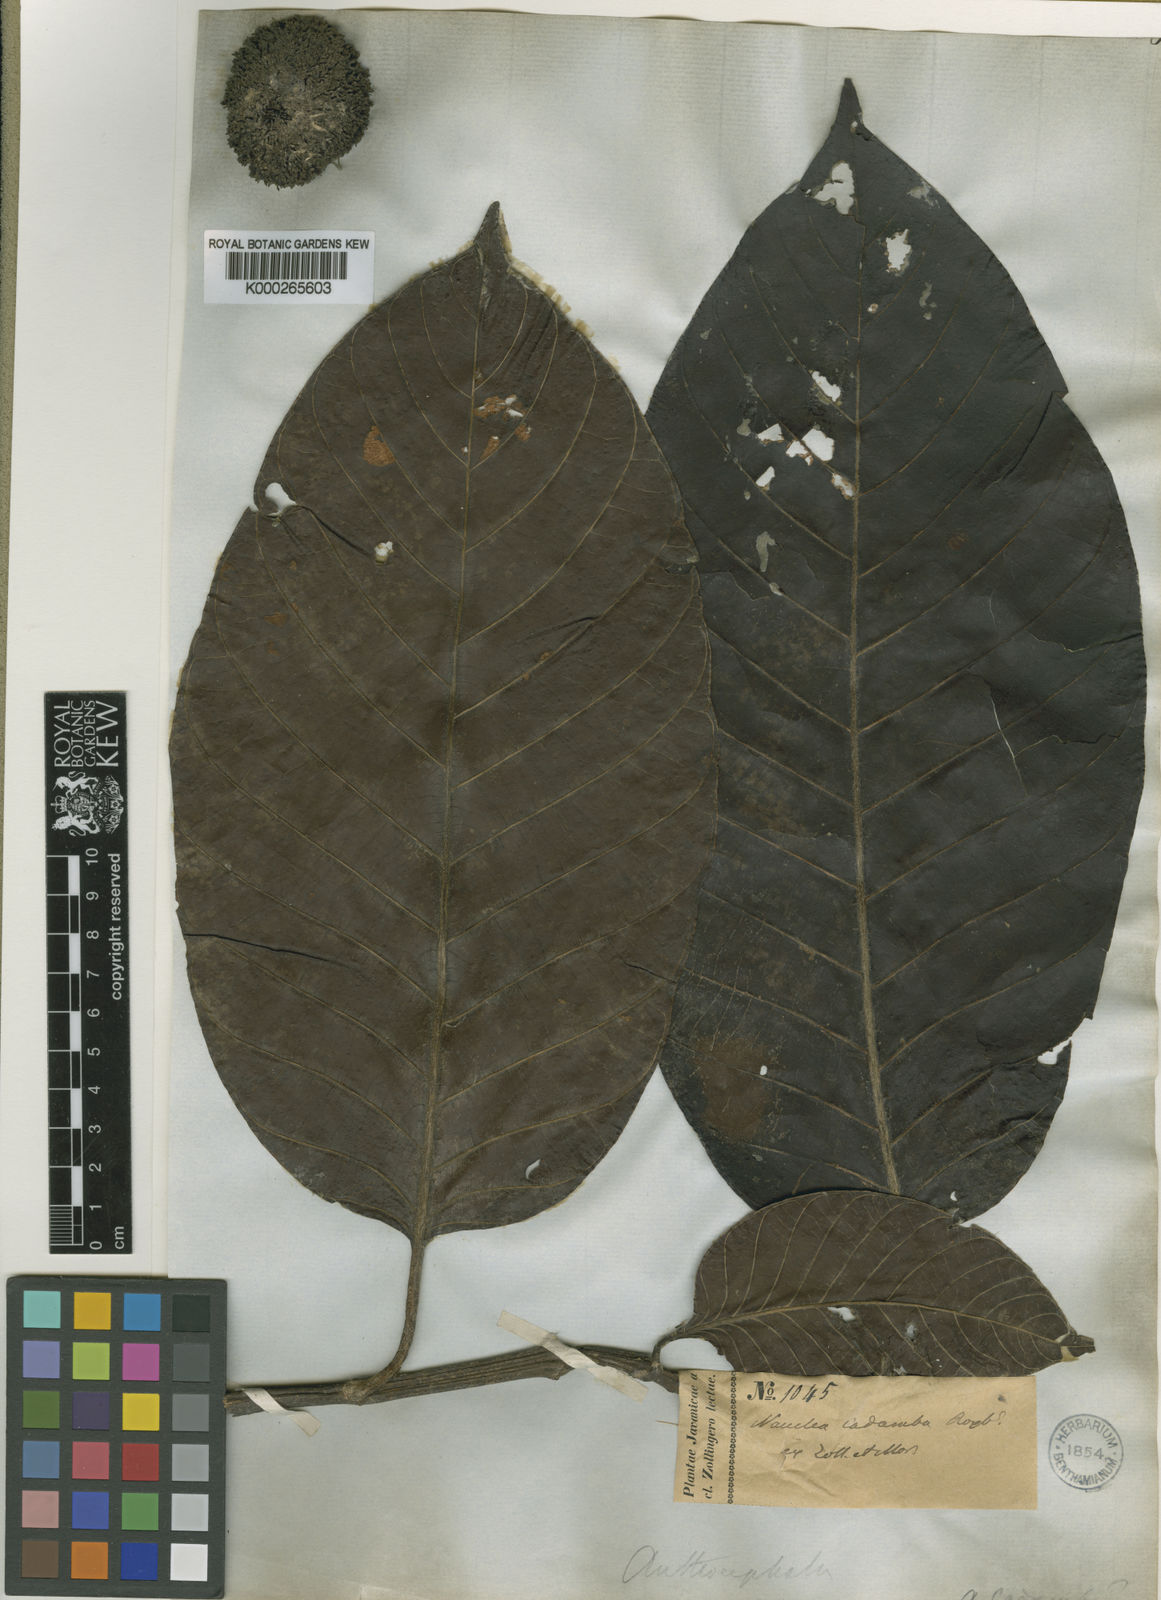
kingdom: Plantae
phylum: Tracheophyta
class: Magnoliopsida
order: Gentianales
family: Rubiaceae
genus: Neolamarckia
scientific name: Neolamarckia cadamba
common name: Leichhardt-pine
